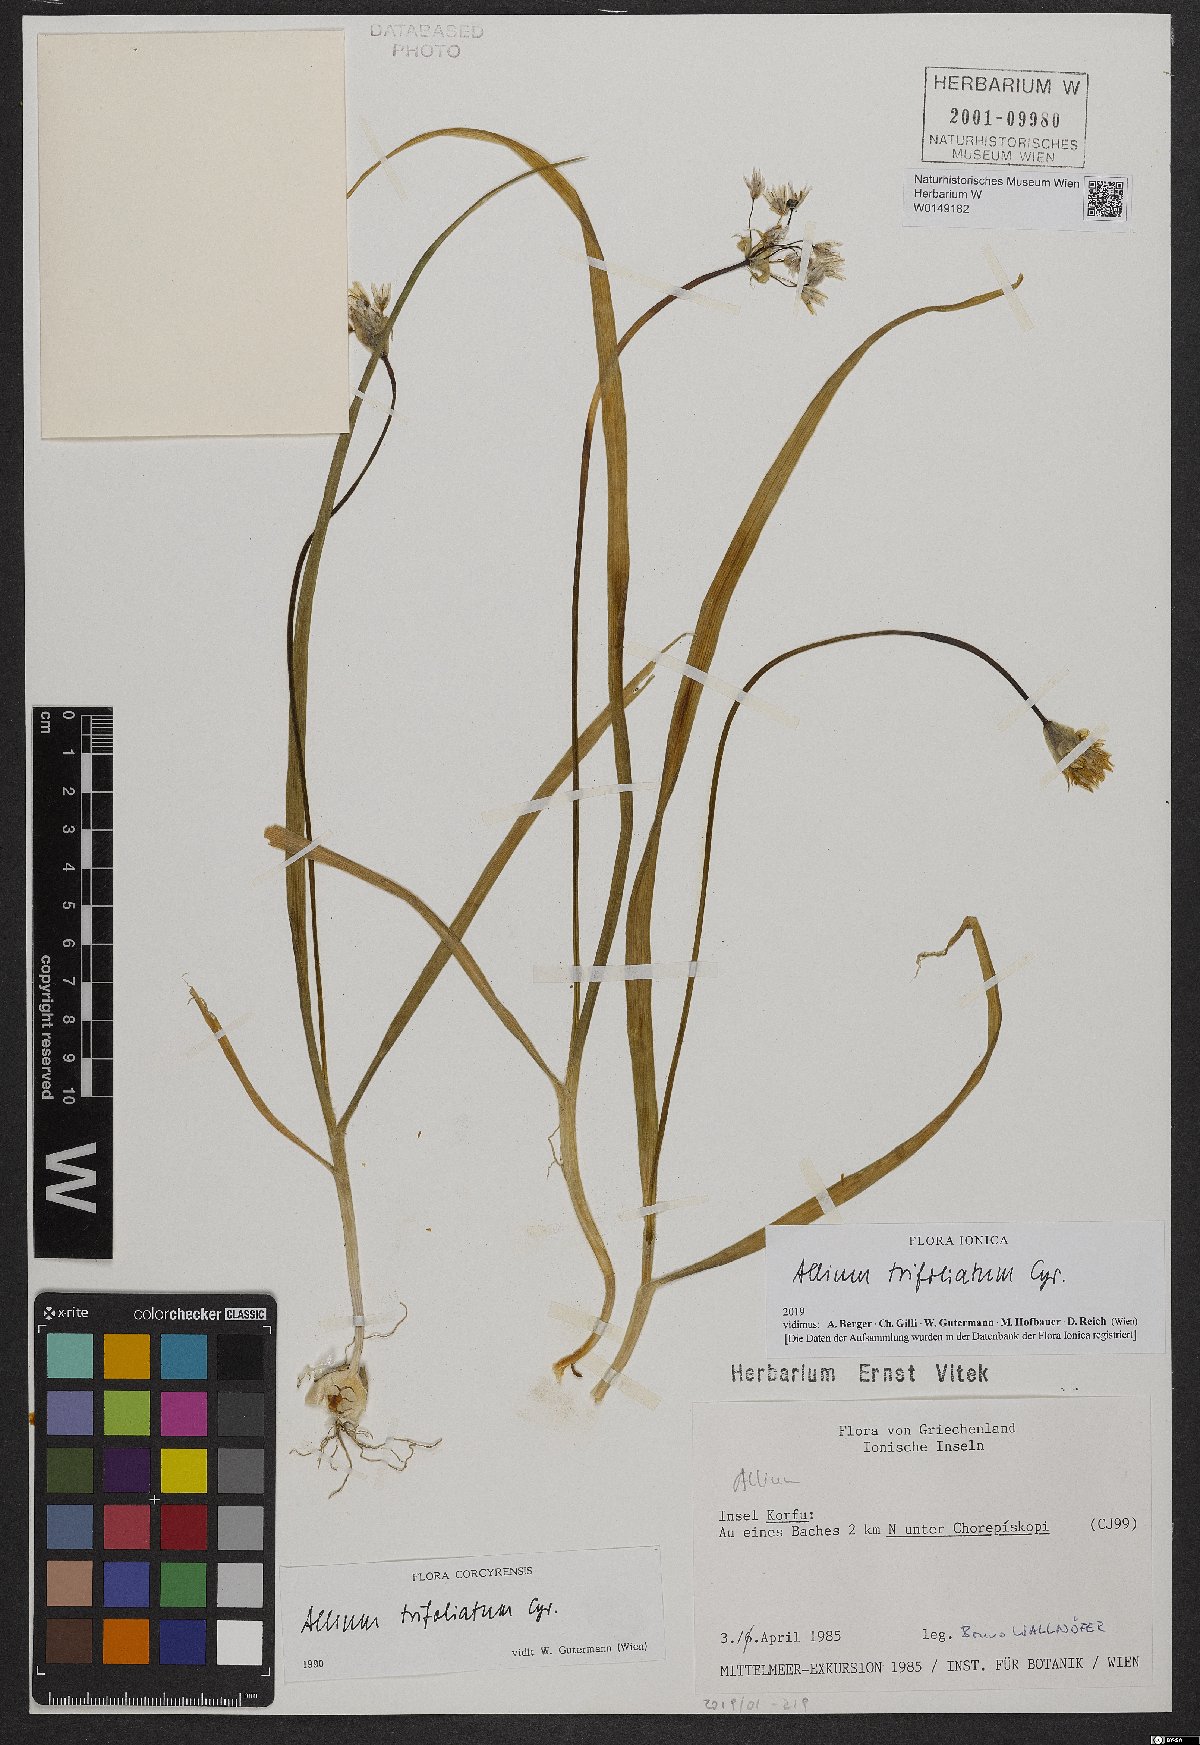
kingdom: Plantae
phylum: Tracheophyta
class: Liliopsida
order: Asparagales
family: Amaryllidaceae
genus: Allium
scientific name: Allium trifoliatum
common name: Pink garlic
